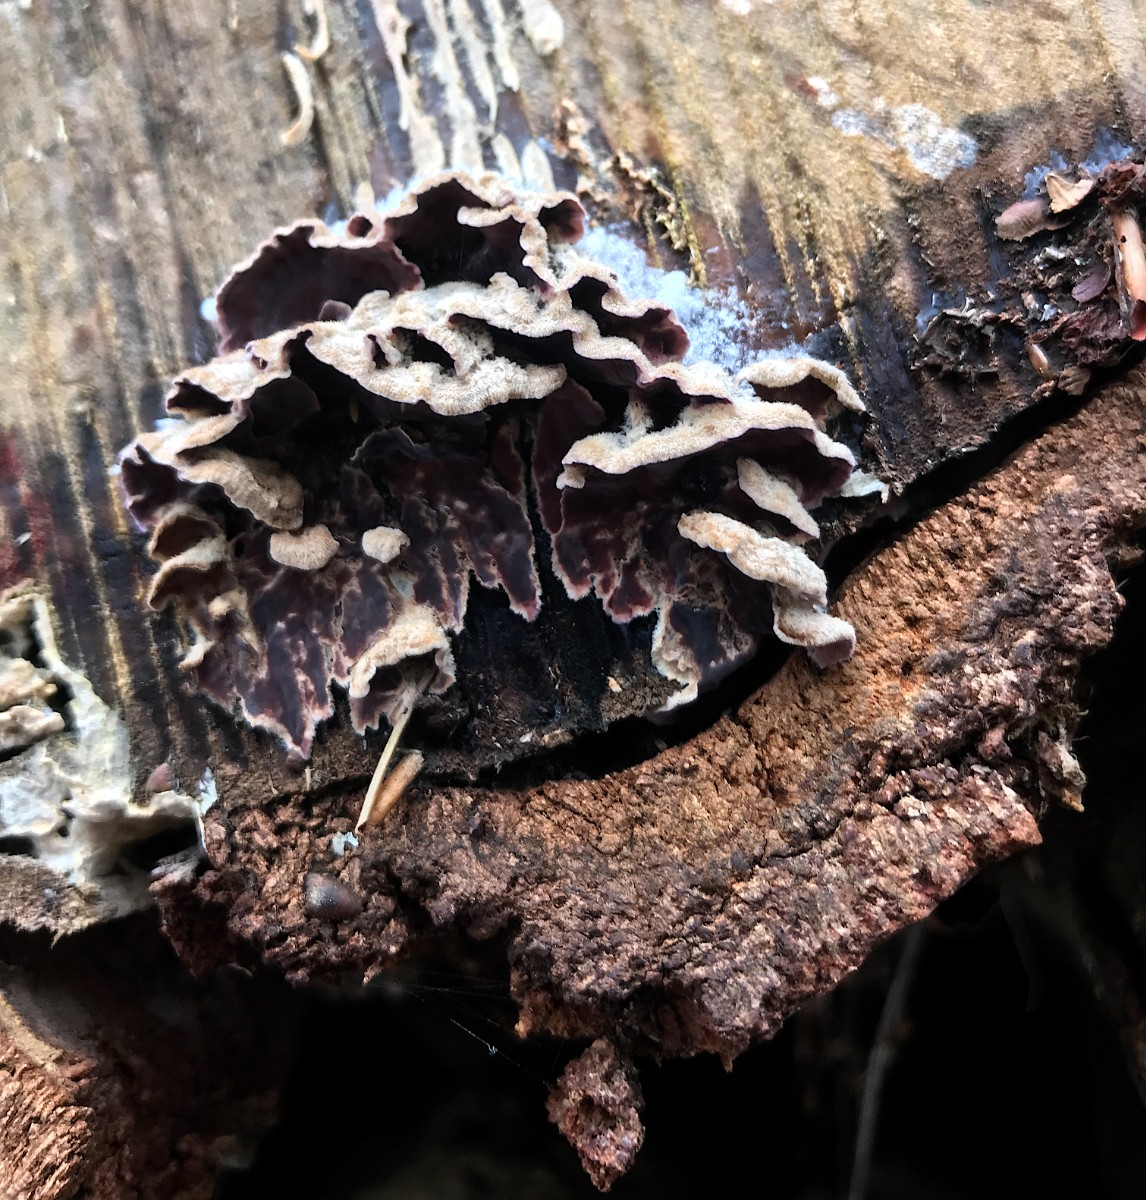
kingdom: Fungi
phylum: Basidiomycota
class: Agaricomycetes
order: Agaricales
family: Cyphellaceae
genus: Chondrostereum
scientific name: Chondrostereum purpureum
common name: purpurlædersvamp
